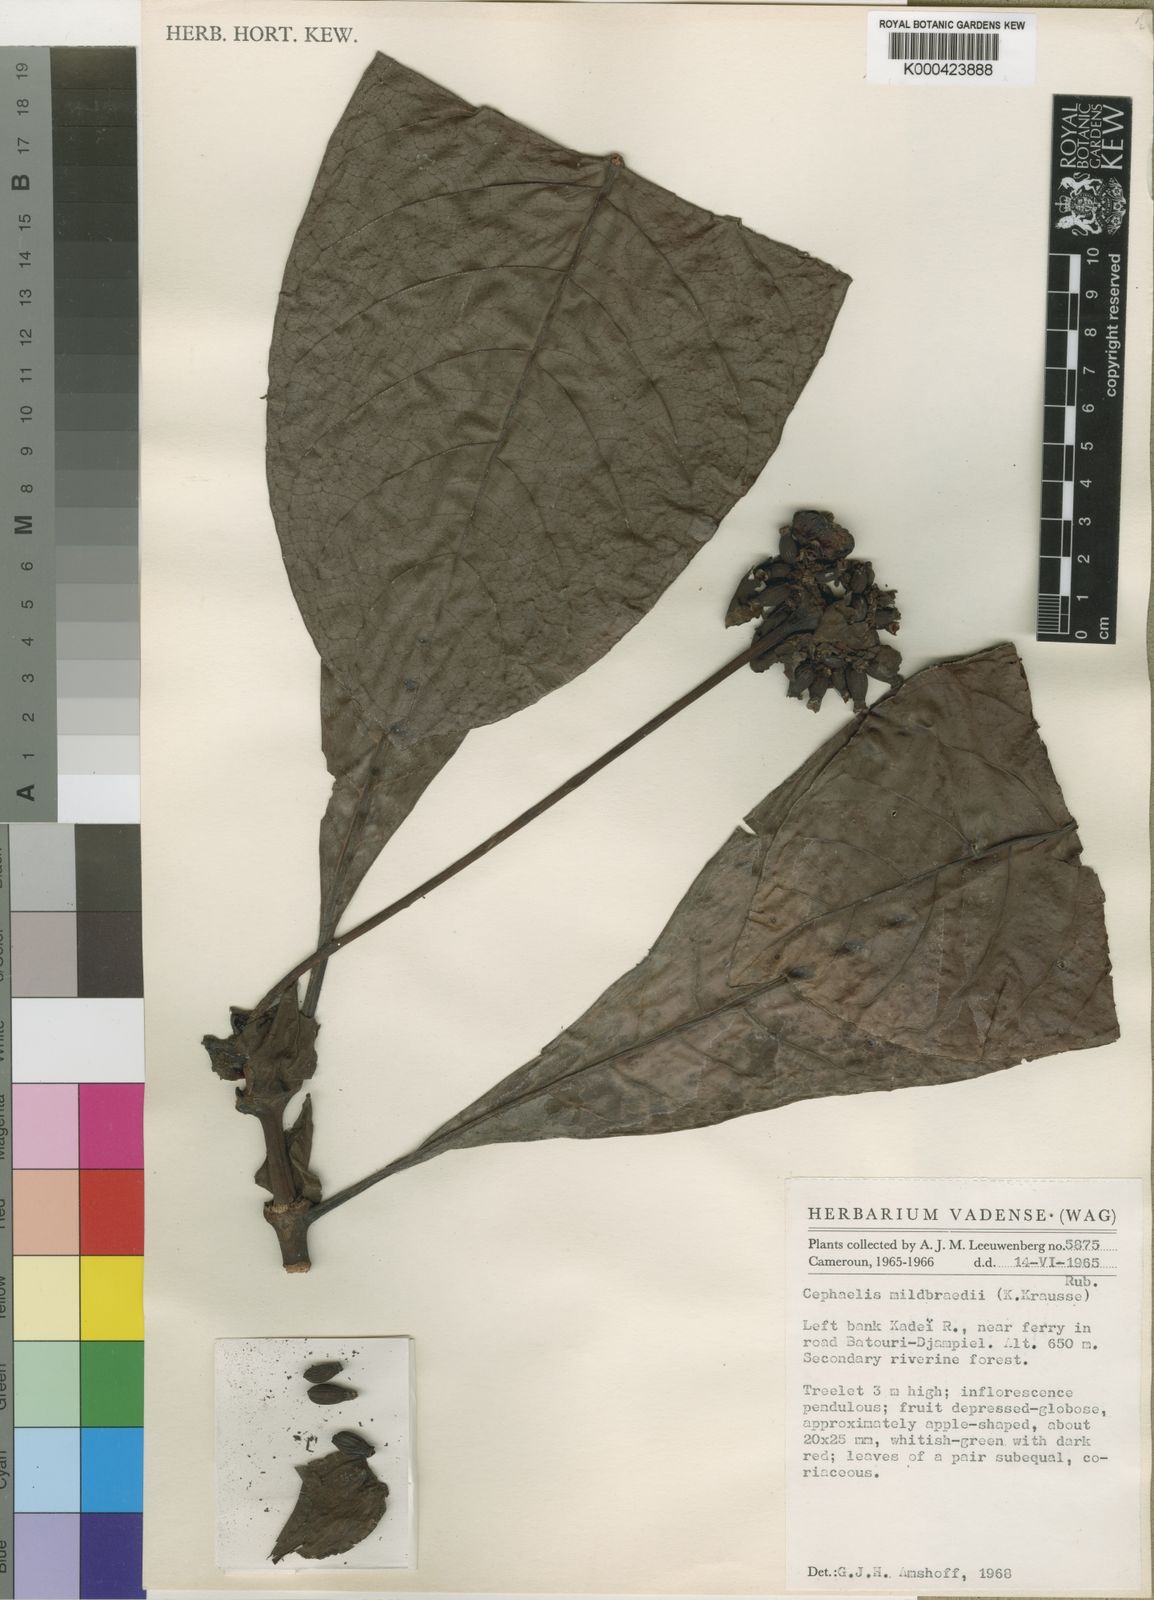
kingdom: Plantae
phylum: Tracheophyta
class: Magnoliopsida
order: Gentianales
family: Rubiaceae
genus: Psychotria
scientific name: Psychotria
